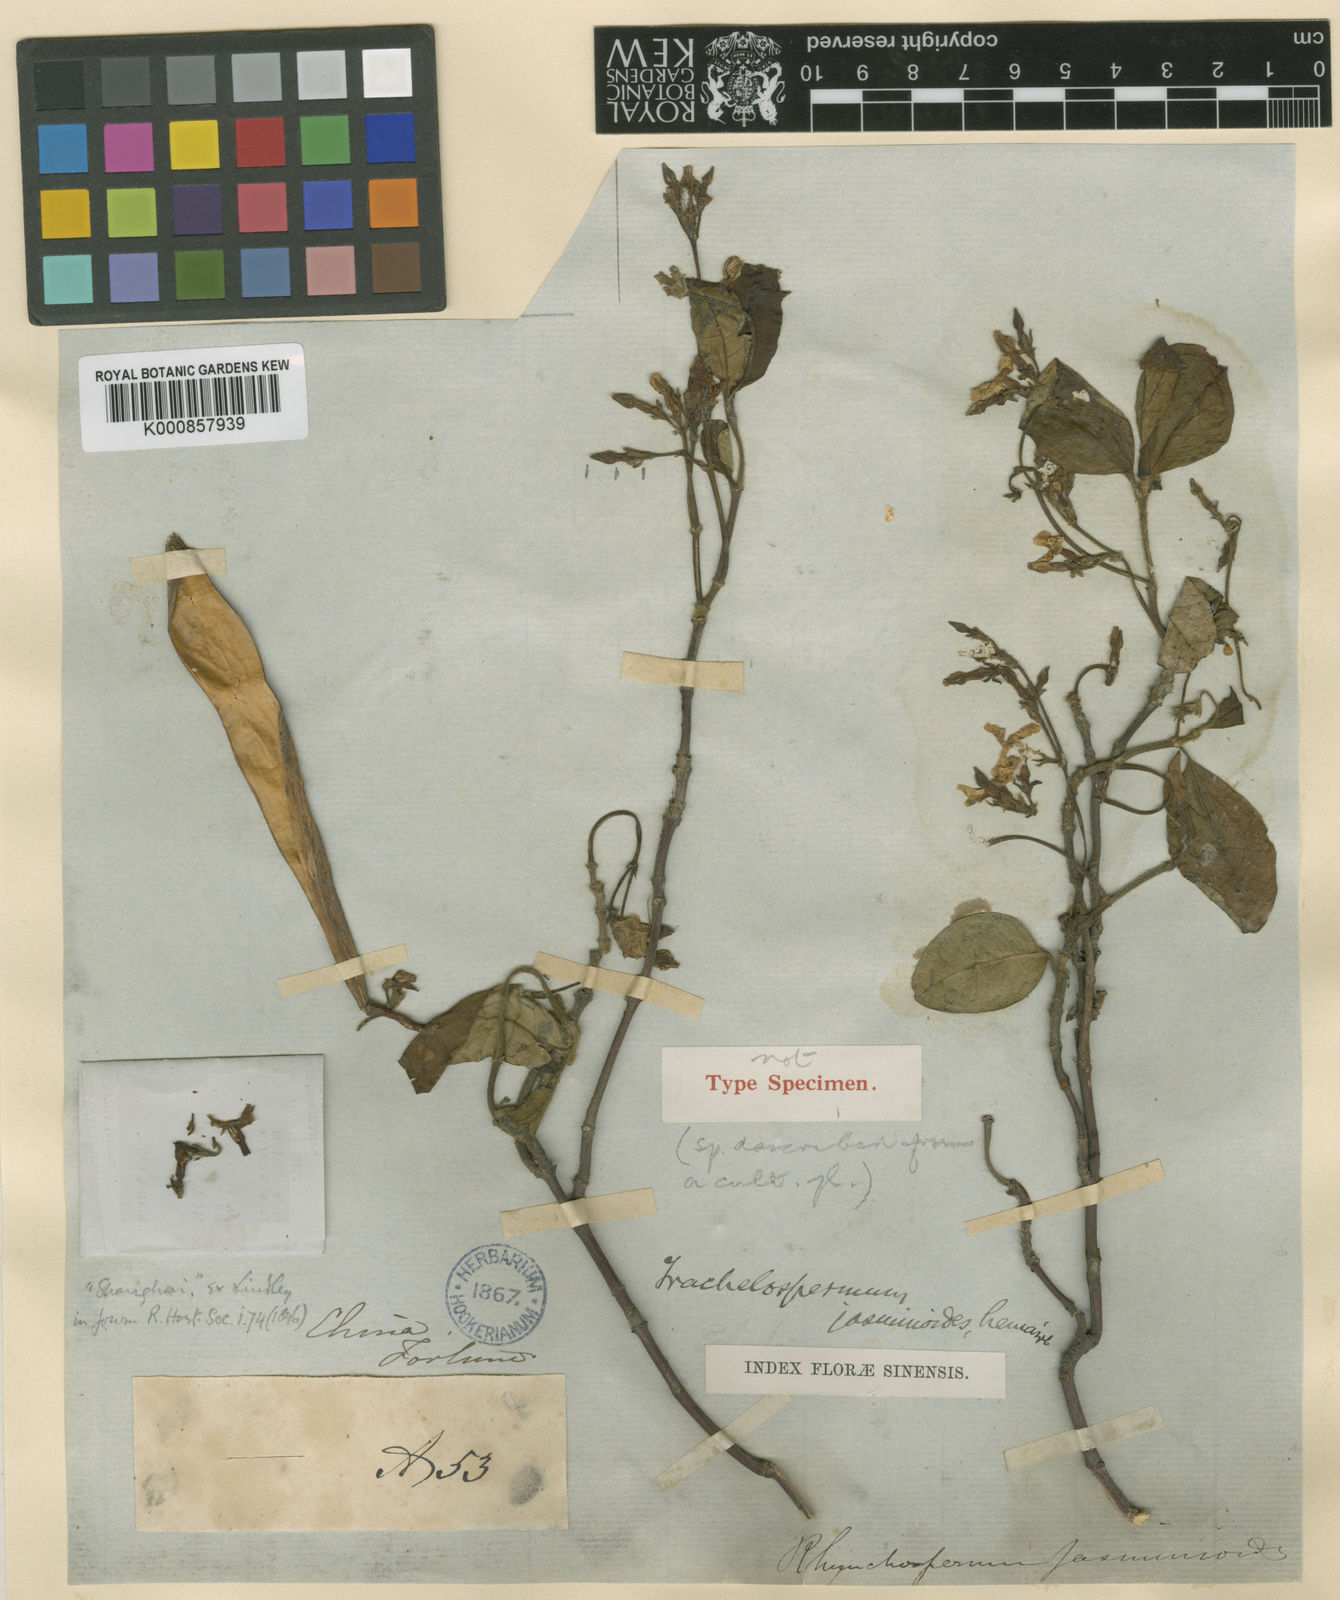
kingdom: Plantae
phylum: Tracheophyta
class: Magnoliopsida
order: Gentianales
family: Apocynaceae
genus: Trachelospermum
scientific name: Trachelospermum jasminoides
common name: Confederate jasmine
